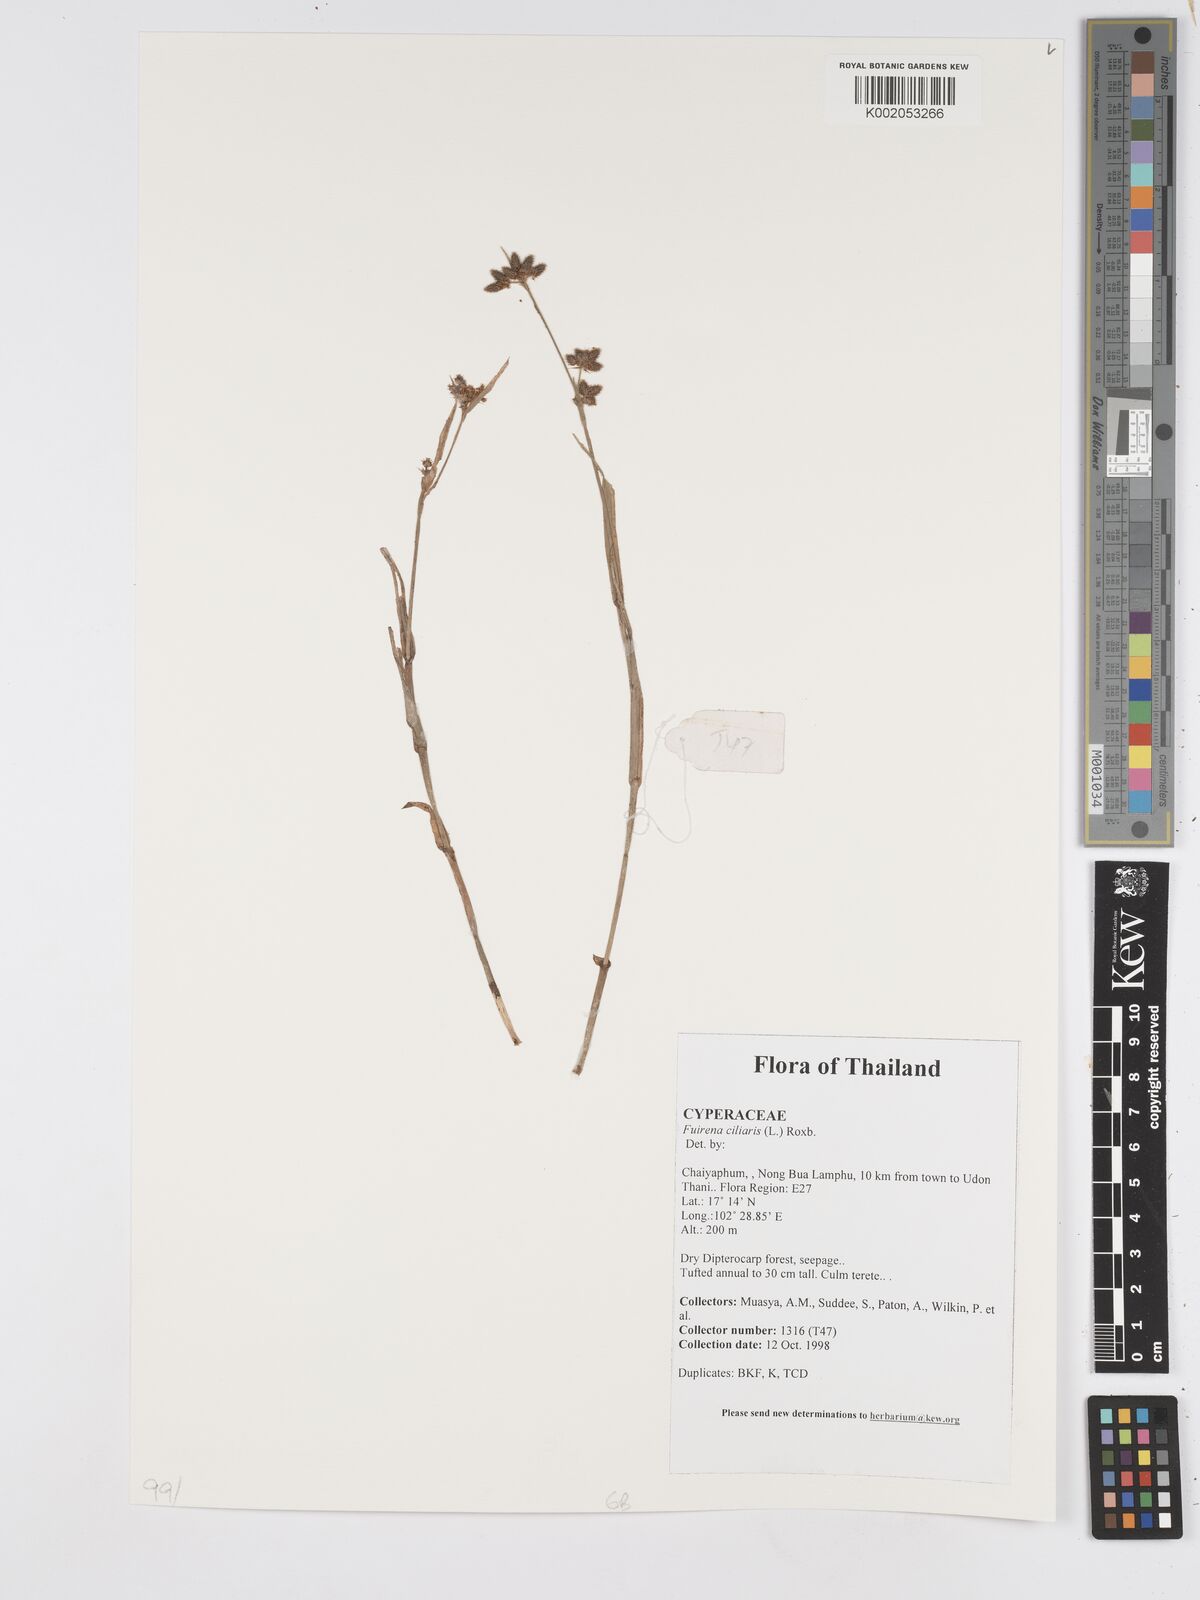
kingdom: Plantae
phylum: Tracheophyta
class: Liliopsida
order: Poales
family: Cyperaceae
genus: Fuirena
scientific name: Fuirena ciliaris
